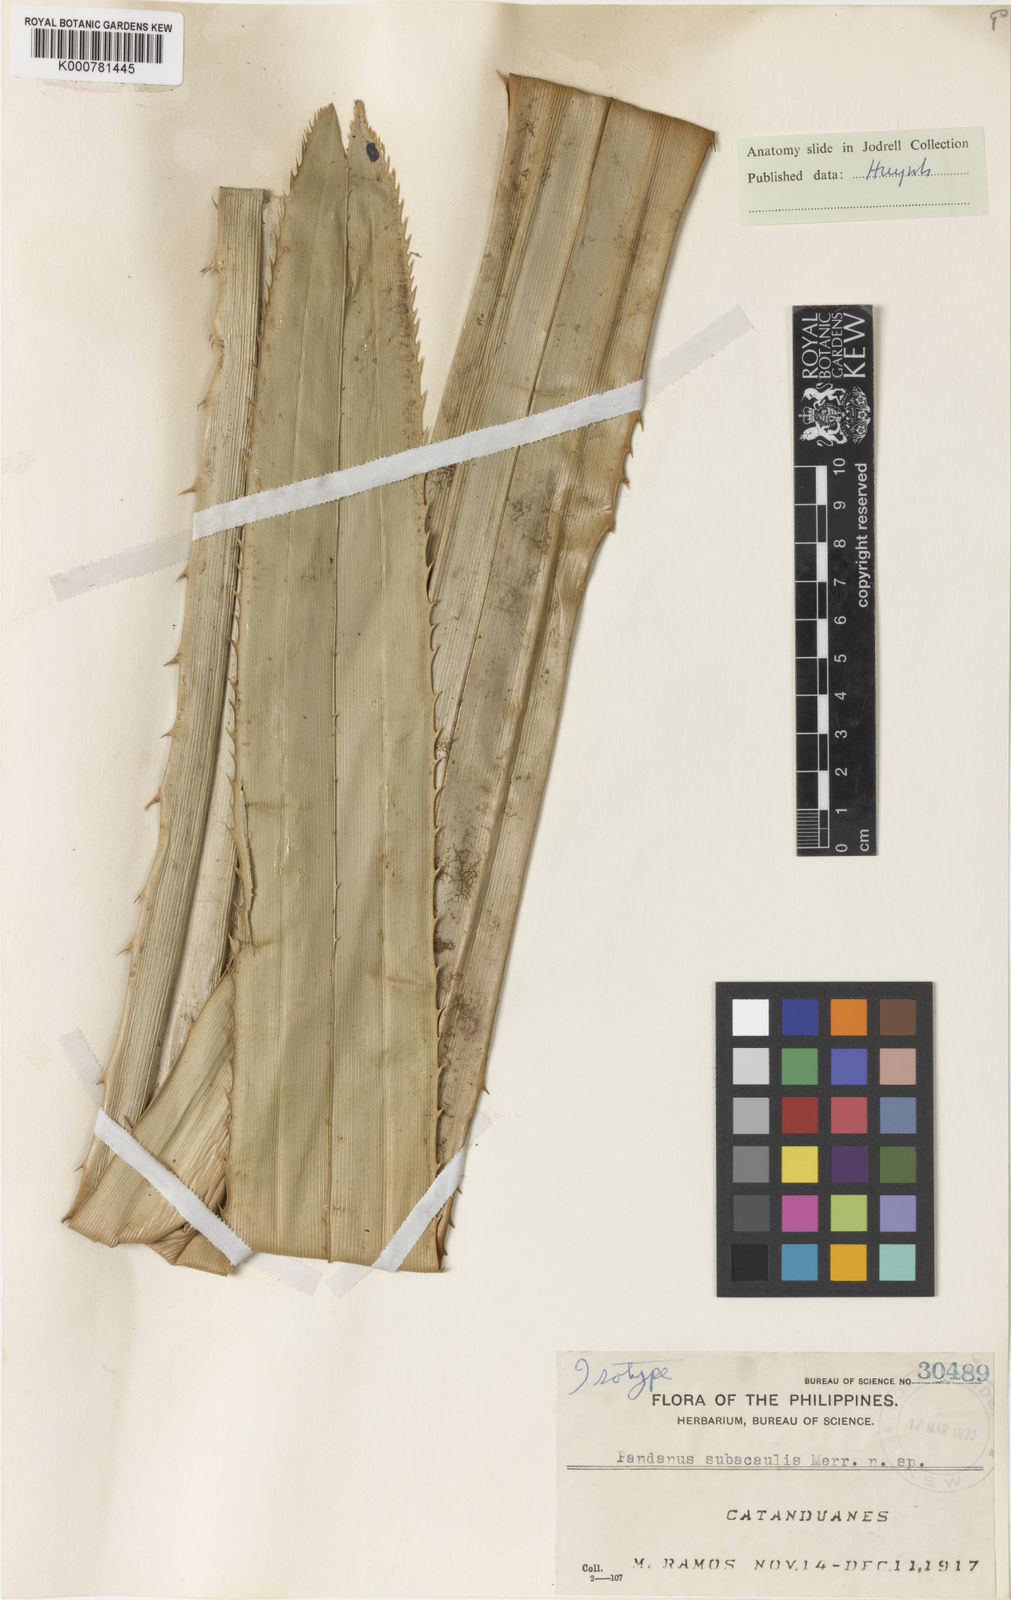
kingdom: Plantae
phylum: Tracheophyta
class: Liliopsida
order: Pandanales
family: Pandanaceae
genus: Pandanus
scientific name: Pandanus subacaulis
